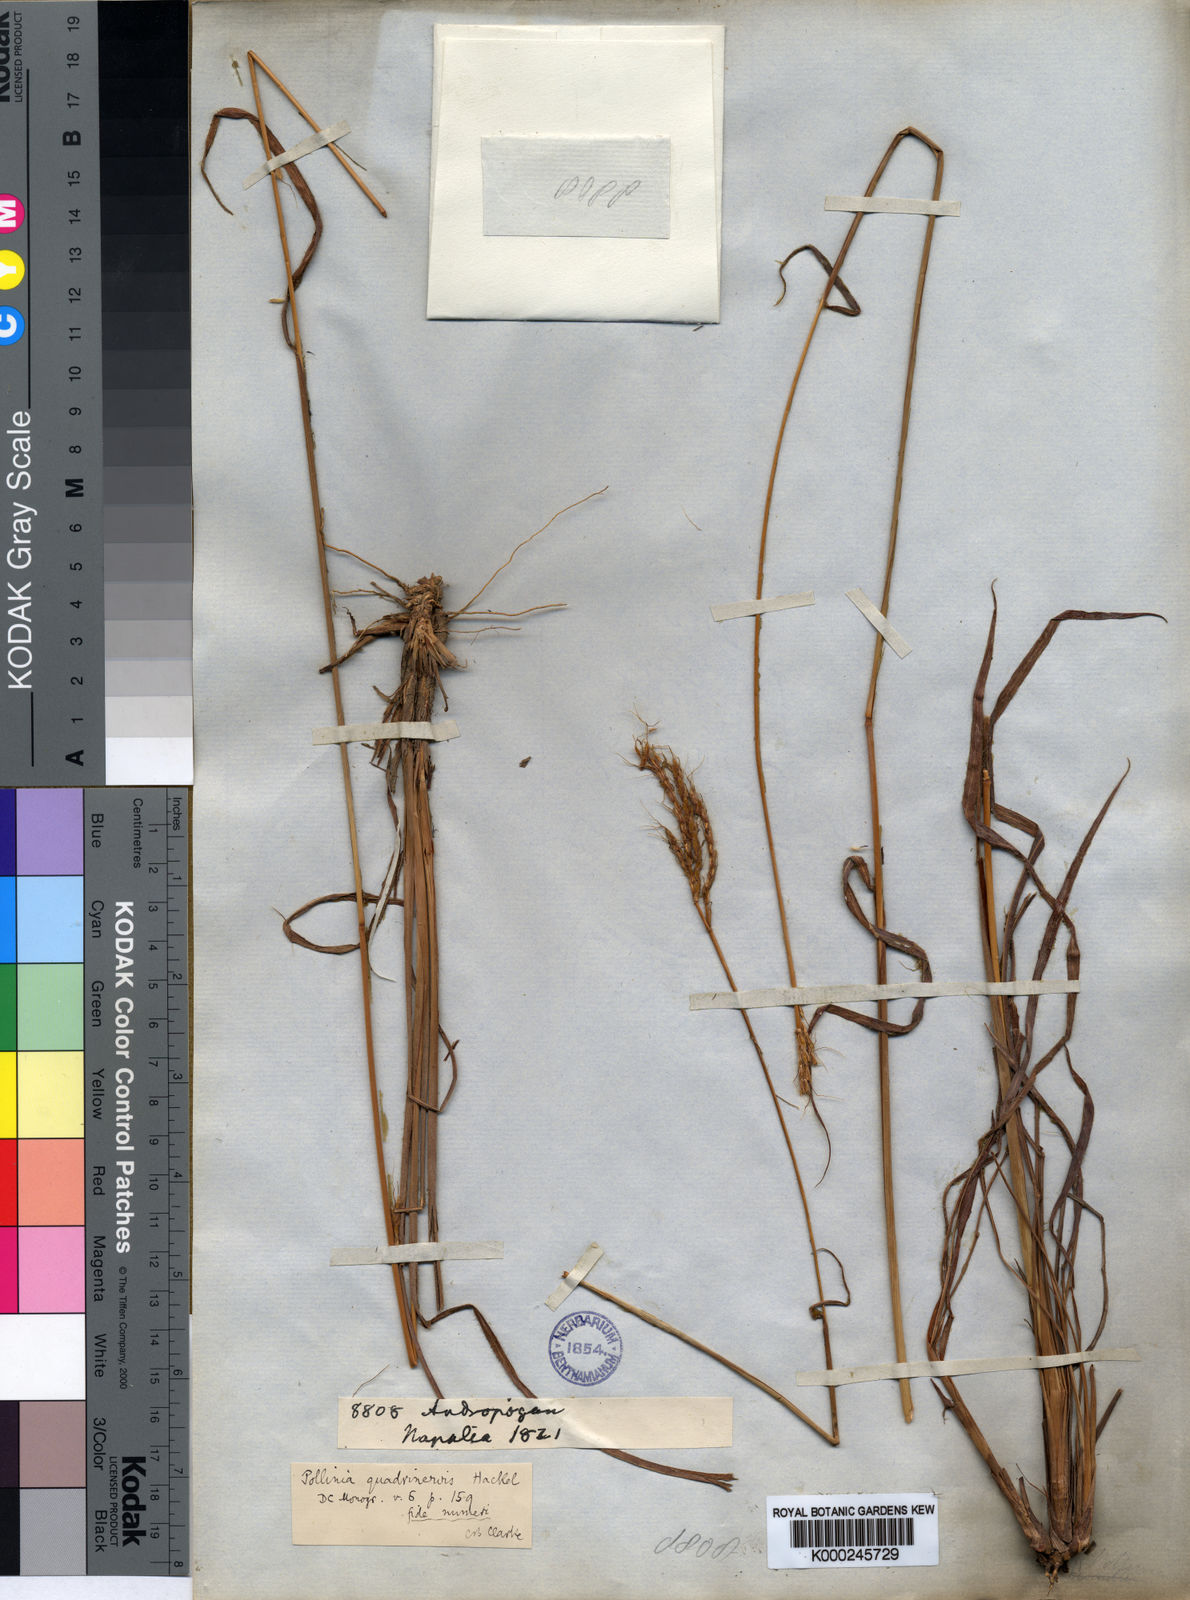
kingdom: Plantae
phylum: Tracheophyta
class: Liliopsida
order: Poales
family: Poaceae
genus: Pseudopogonatherum
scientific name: Pseudopogonatherum quadrinerve
